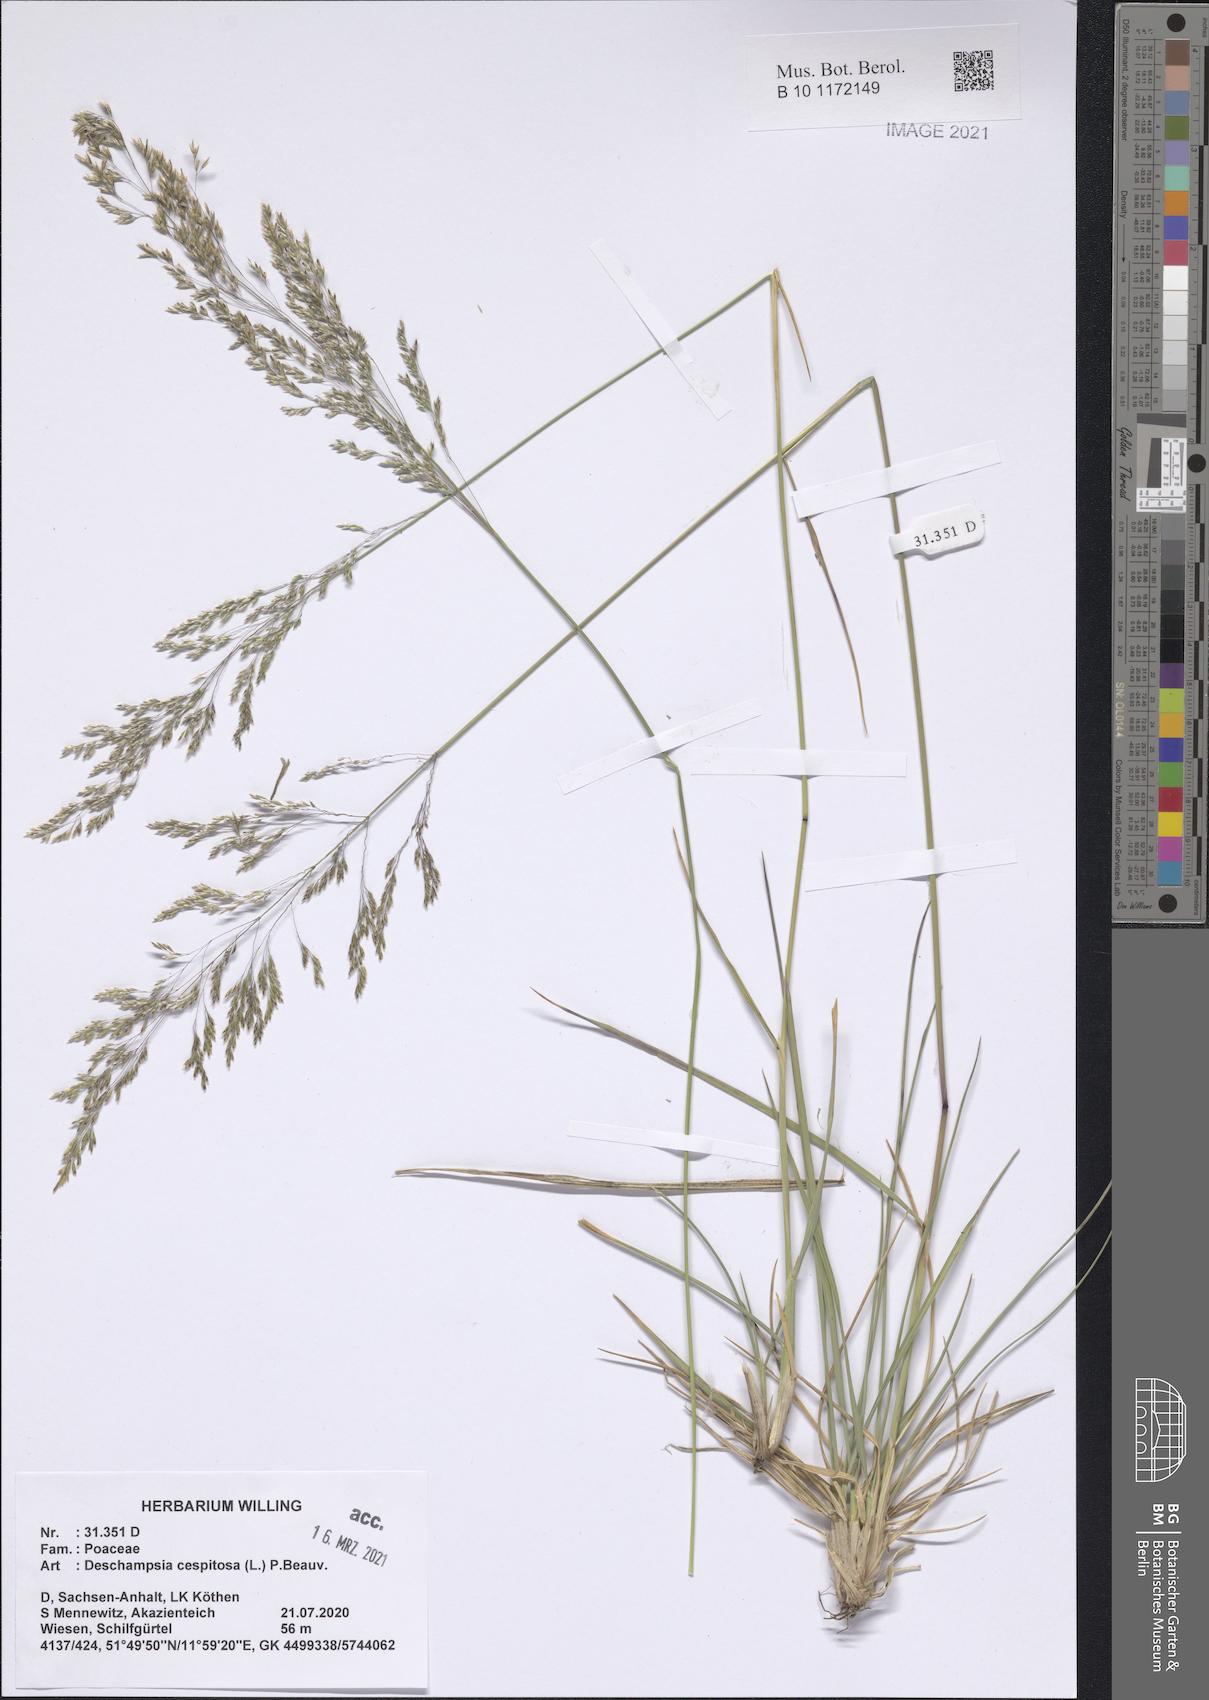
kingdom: Plantae
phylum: Tracheophyta
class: Liliopsida
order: Poales
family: Poaceae
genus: Deschampsia
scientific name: Deschampsia cespitosa
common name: Tufted hair-grass
